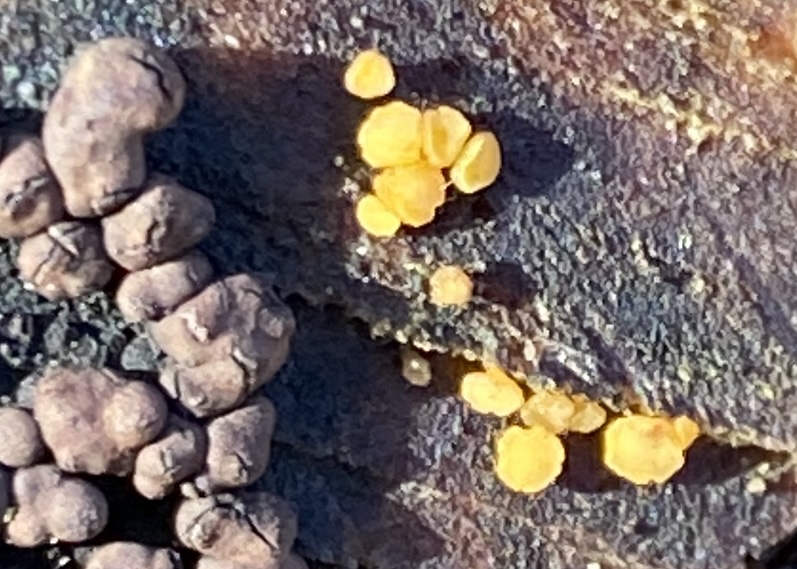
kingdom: Fungi
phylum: Ascomycota
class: Leotiomycetes
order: Helotiales
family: Helotiaceae
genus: Bisporella
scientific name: Bisporella subpallida
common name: lys snitskive
